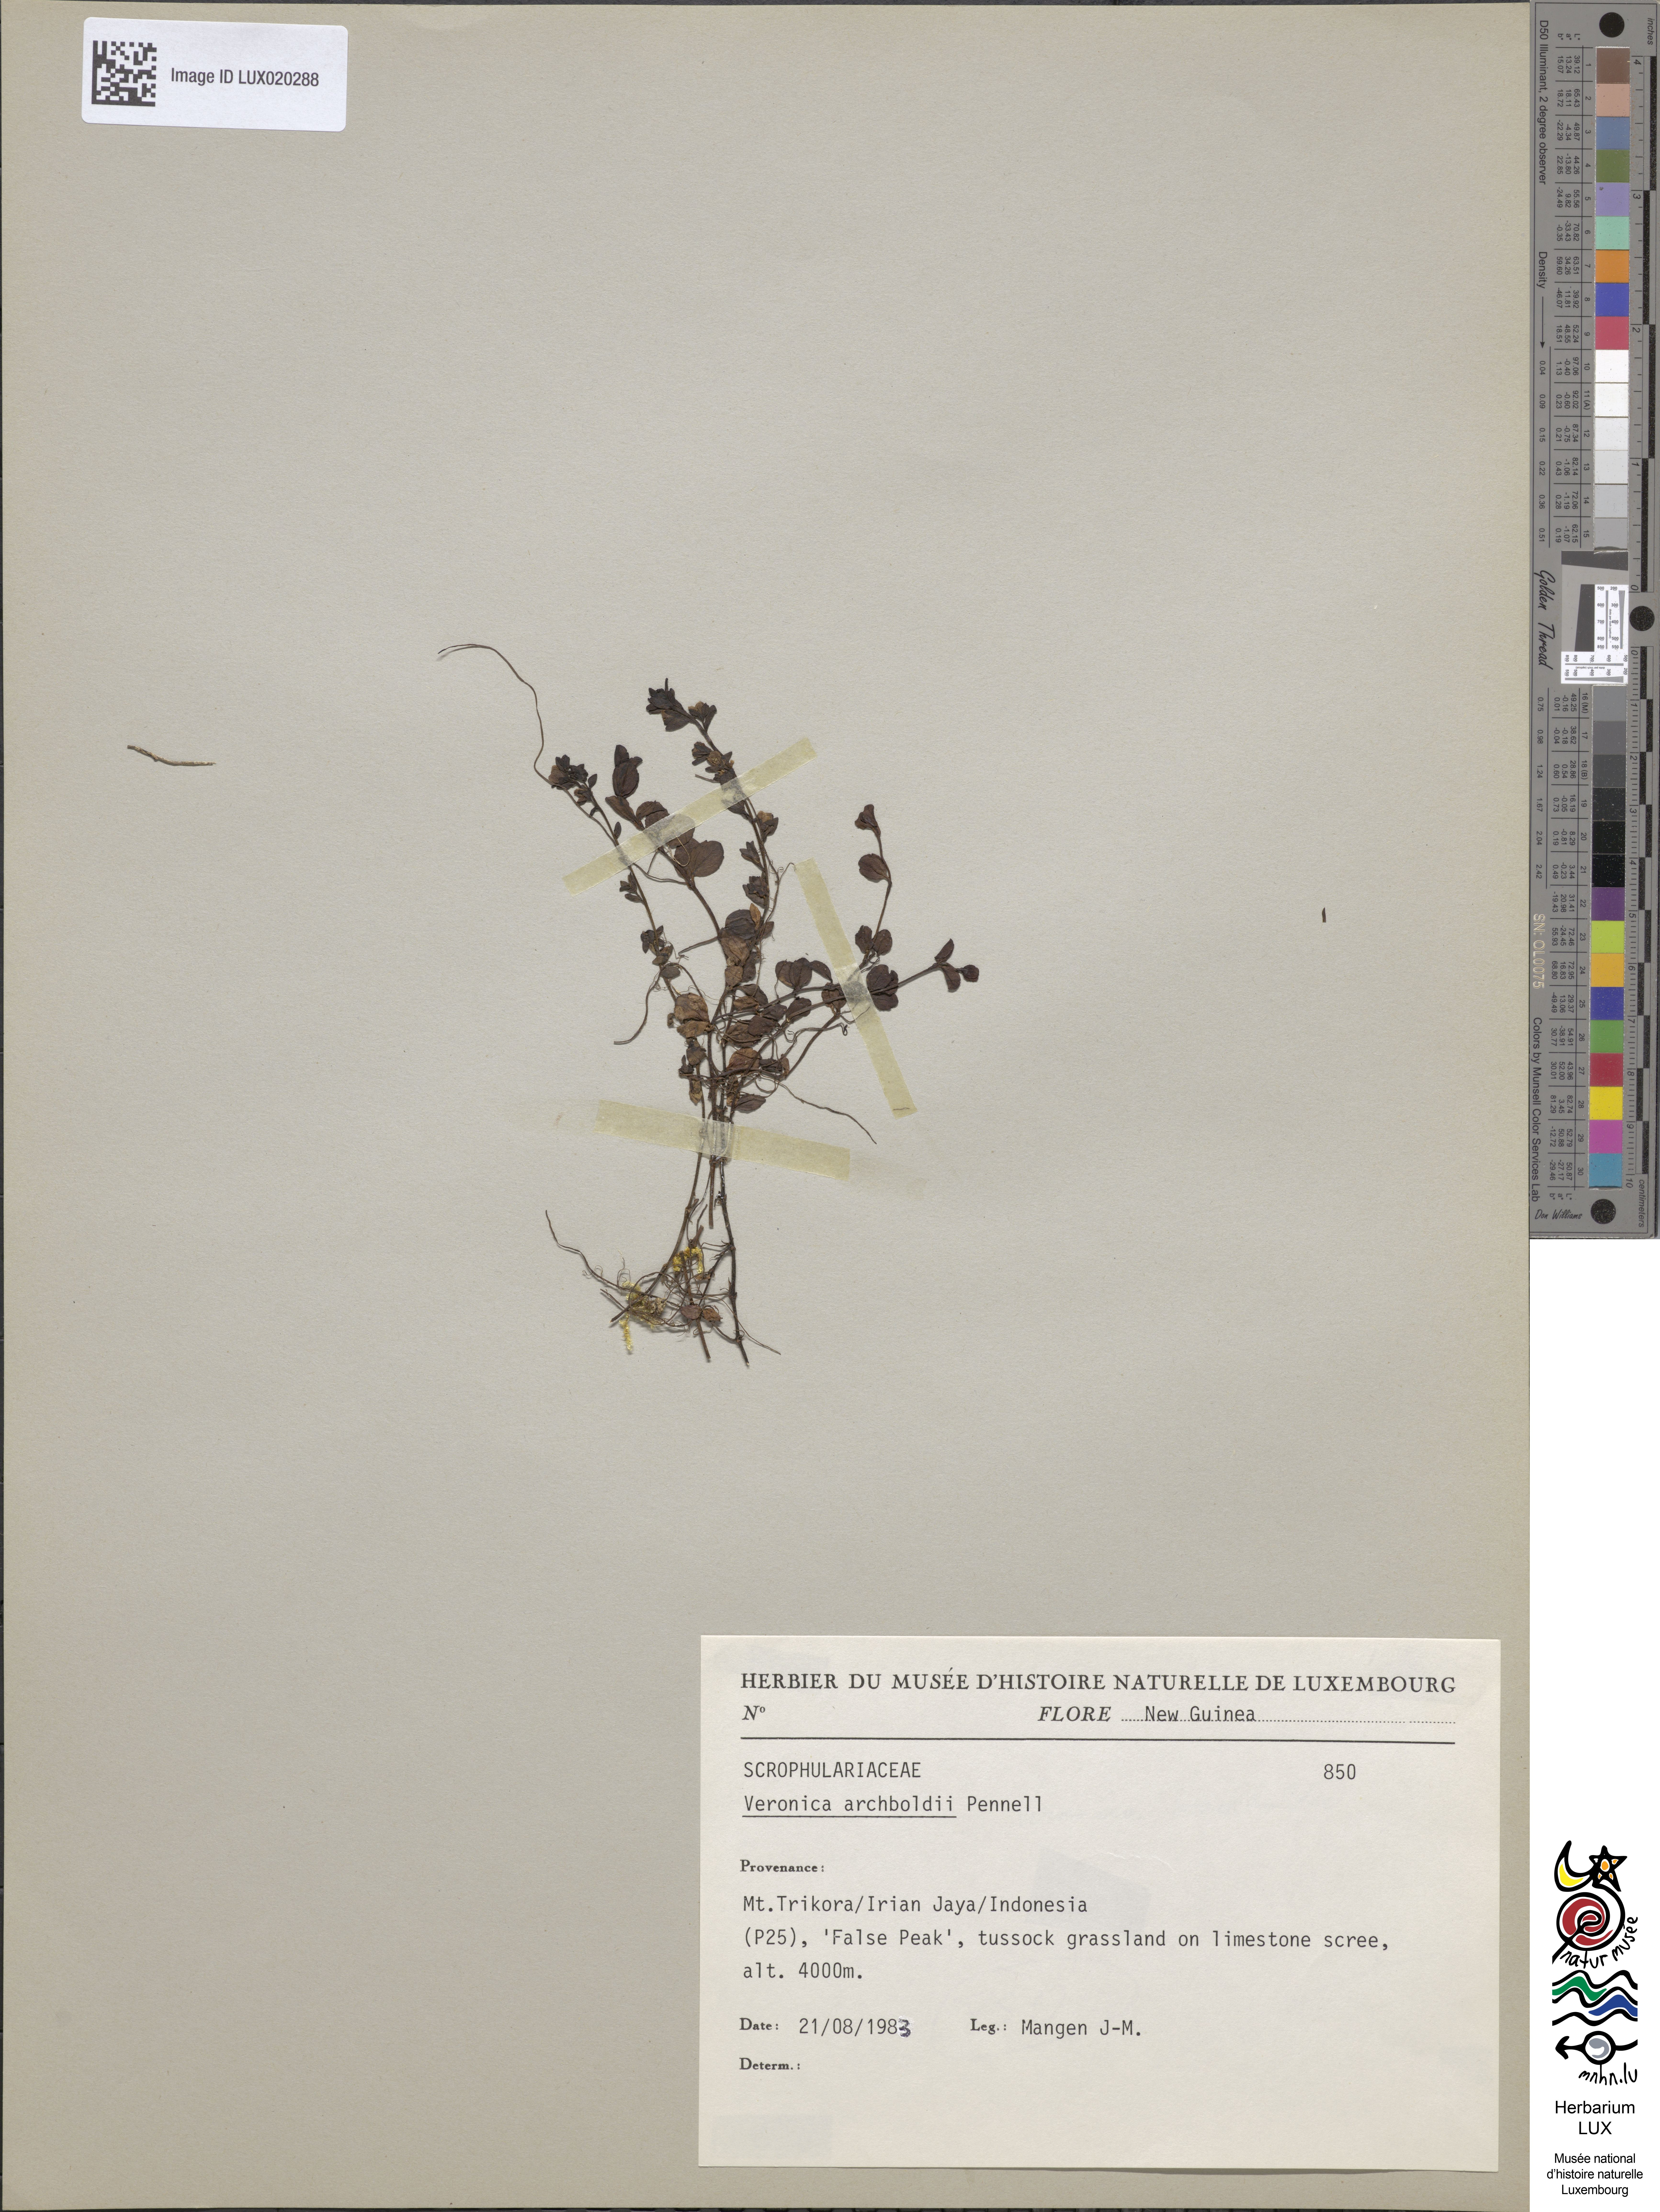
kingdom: Plantae
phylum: Tracheophyta
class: Magnoliopsida
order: Lamiales
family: Plantaginaceae
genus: Veronica
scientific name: Veronica archboldii
